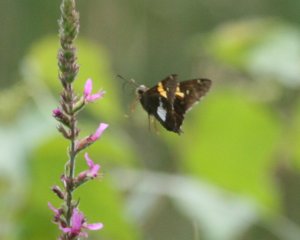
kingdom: Animalia
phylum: Arthropoda
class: Insecta
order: Lepidoptera
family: Hesperiidae
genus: Epargyreus
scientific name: Epargyreus clarus
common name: Silver-spotted Skipper
